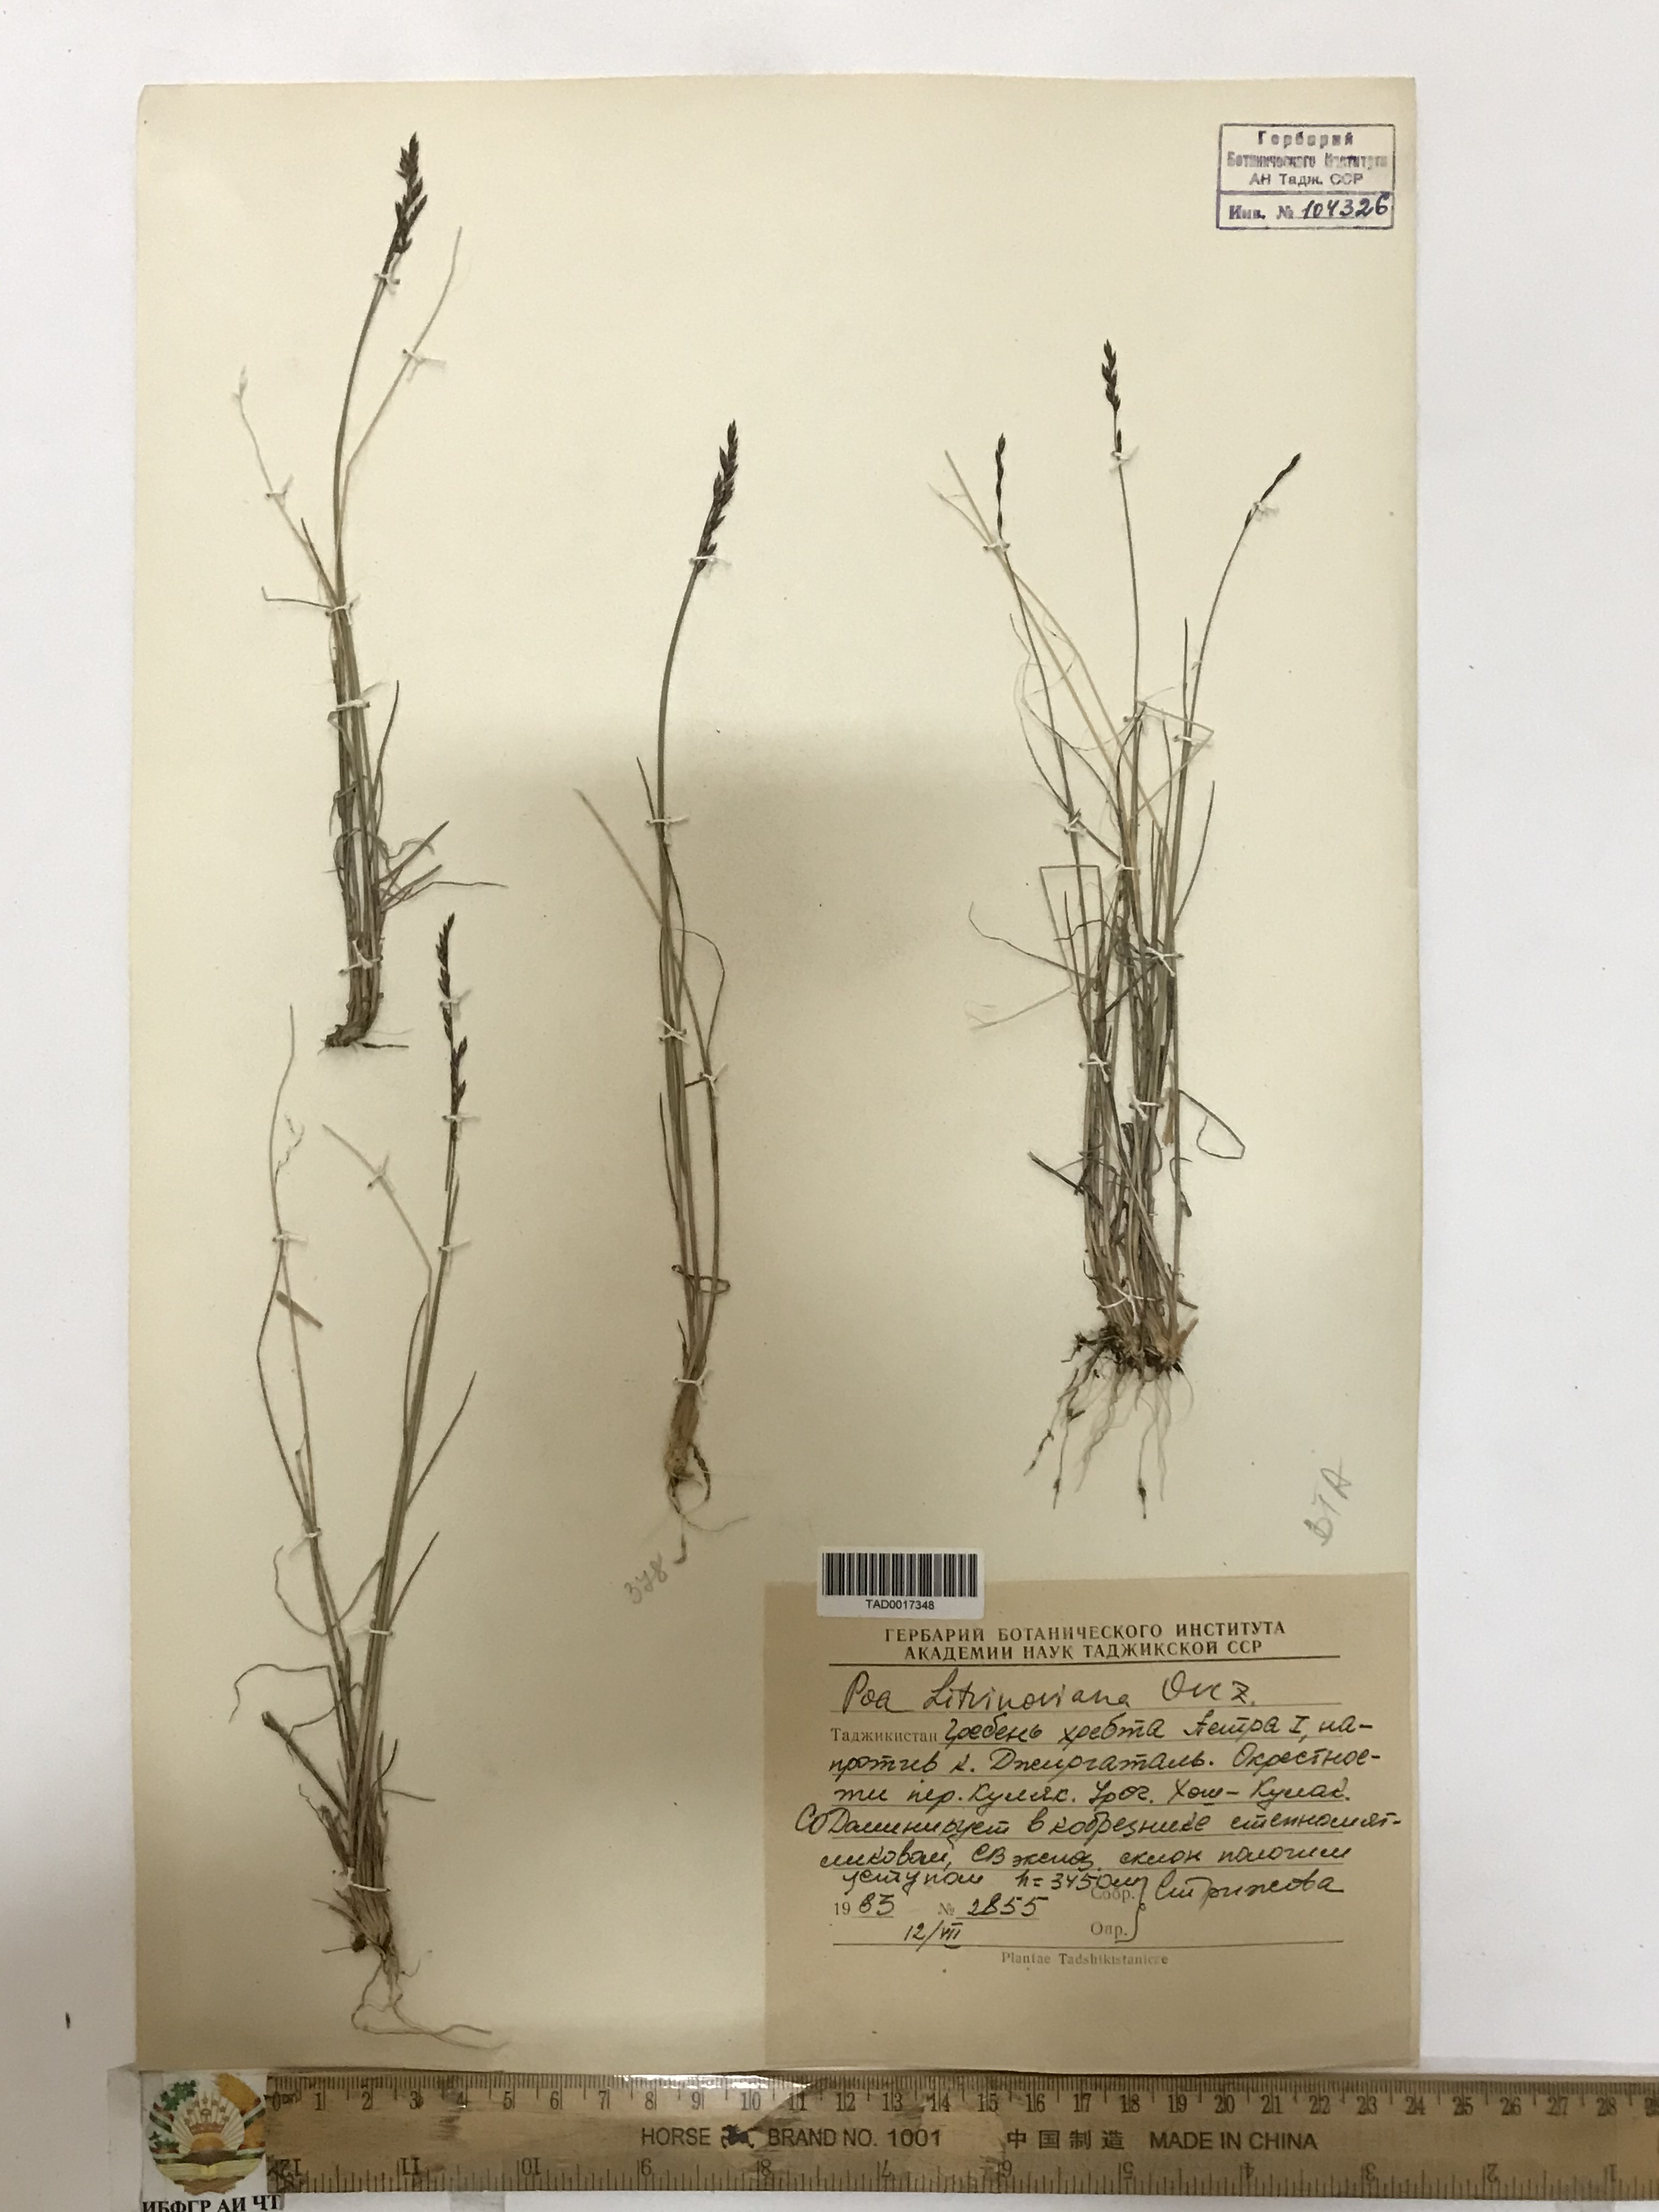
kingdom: Plantae
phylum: Tracheophyta
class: Liliopsida
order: Poales
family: Poaceae
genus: Poa
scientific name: Poa glauca
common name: Glaucous bluegrass
